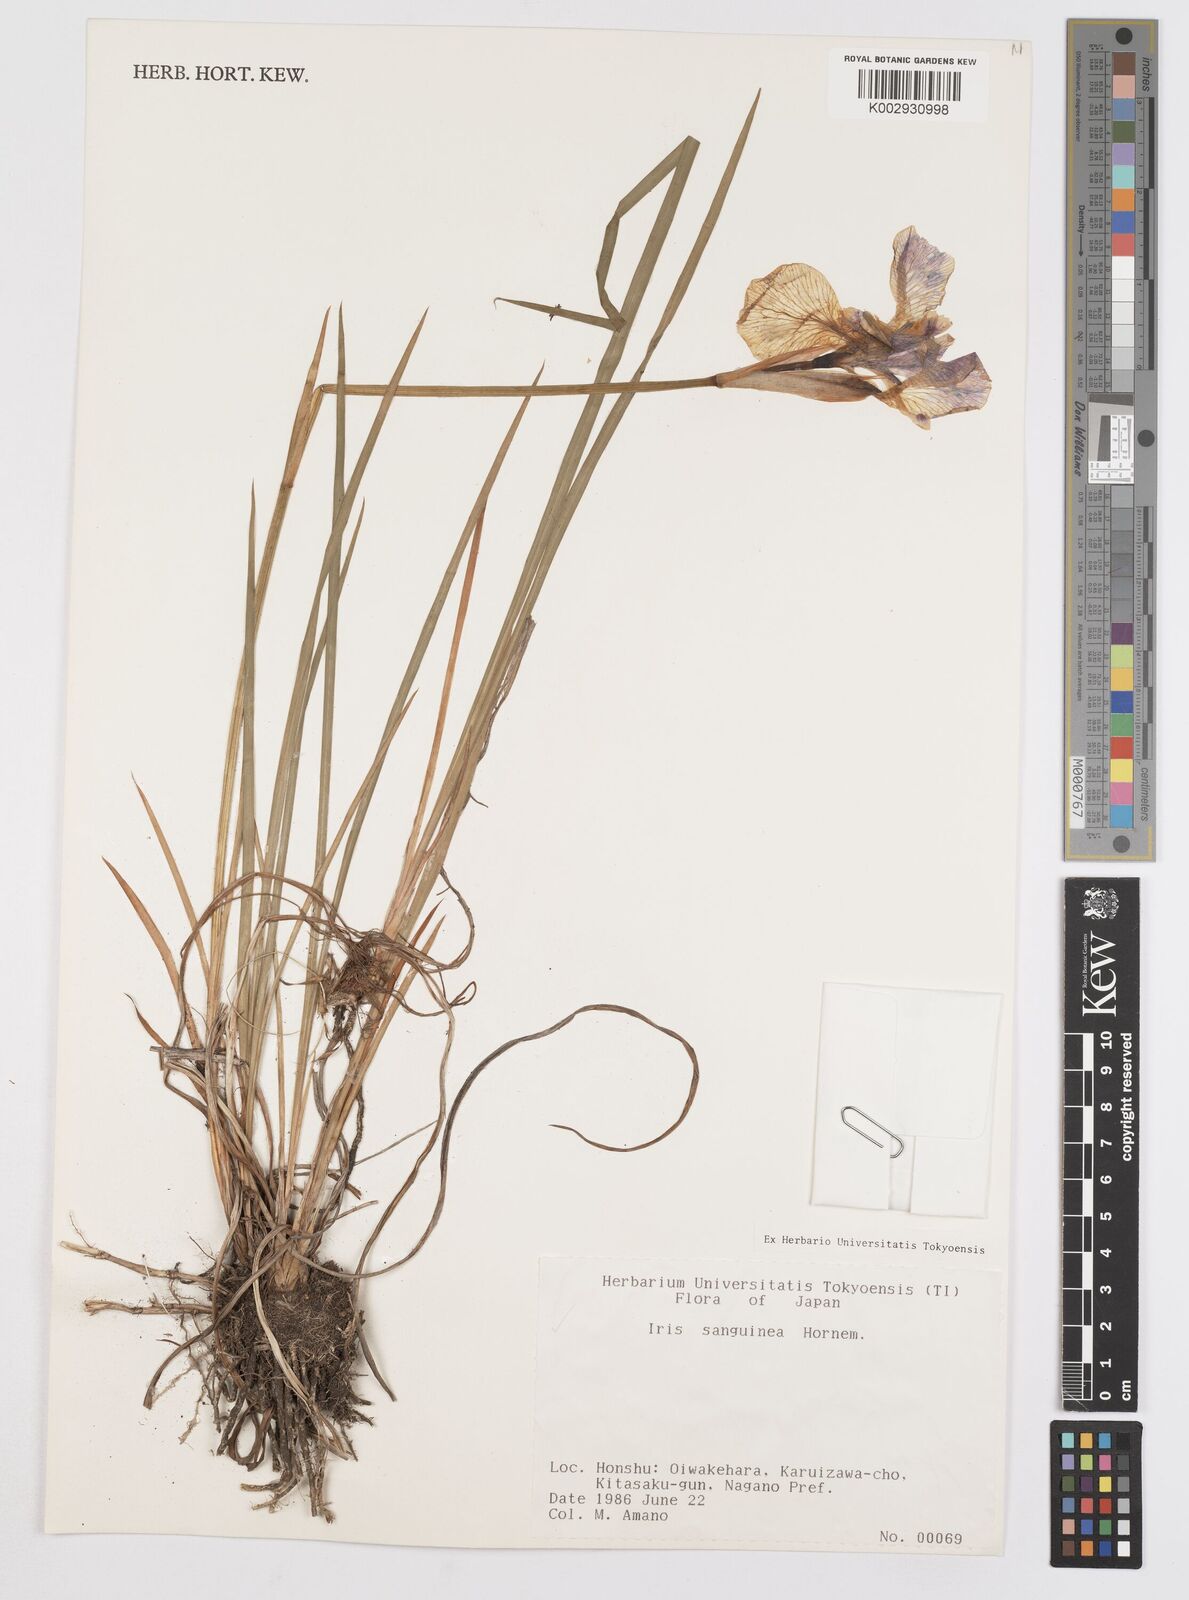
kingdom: Plantae
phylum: Tracheophyta
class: Liliopsida
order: Asparagales
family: Iridaceae
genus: Iris
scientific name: Iris sanguinea
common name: Blood iris
